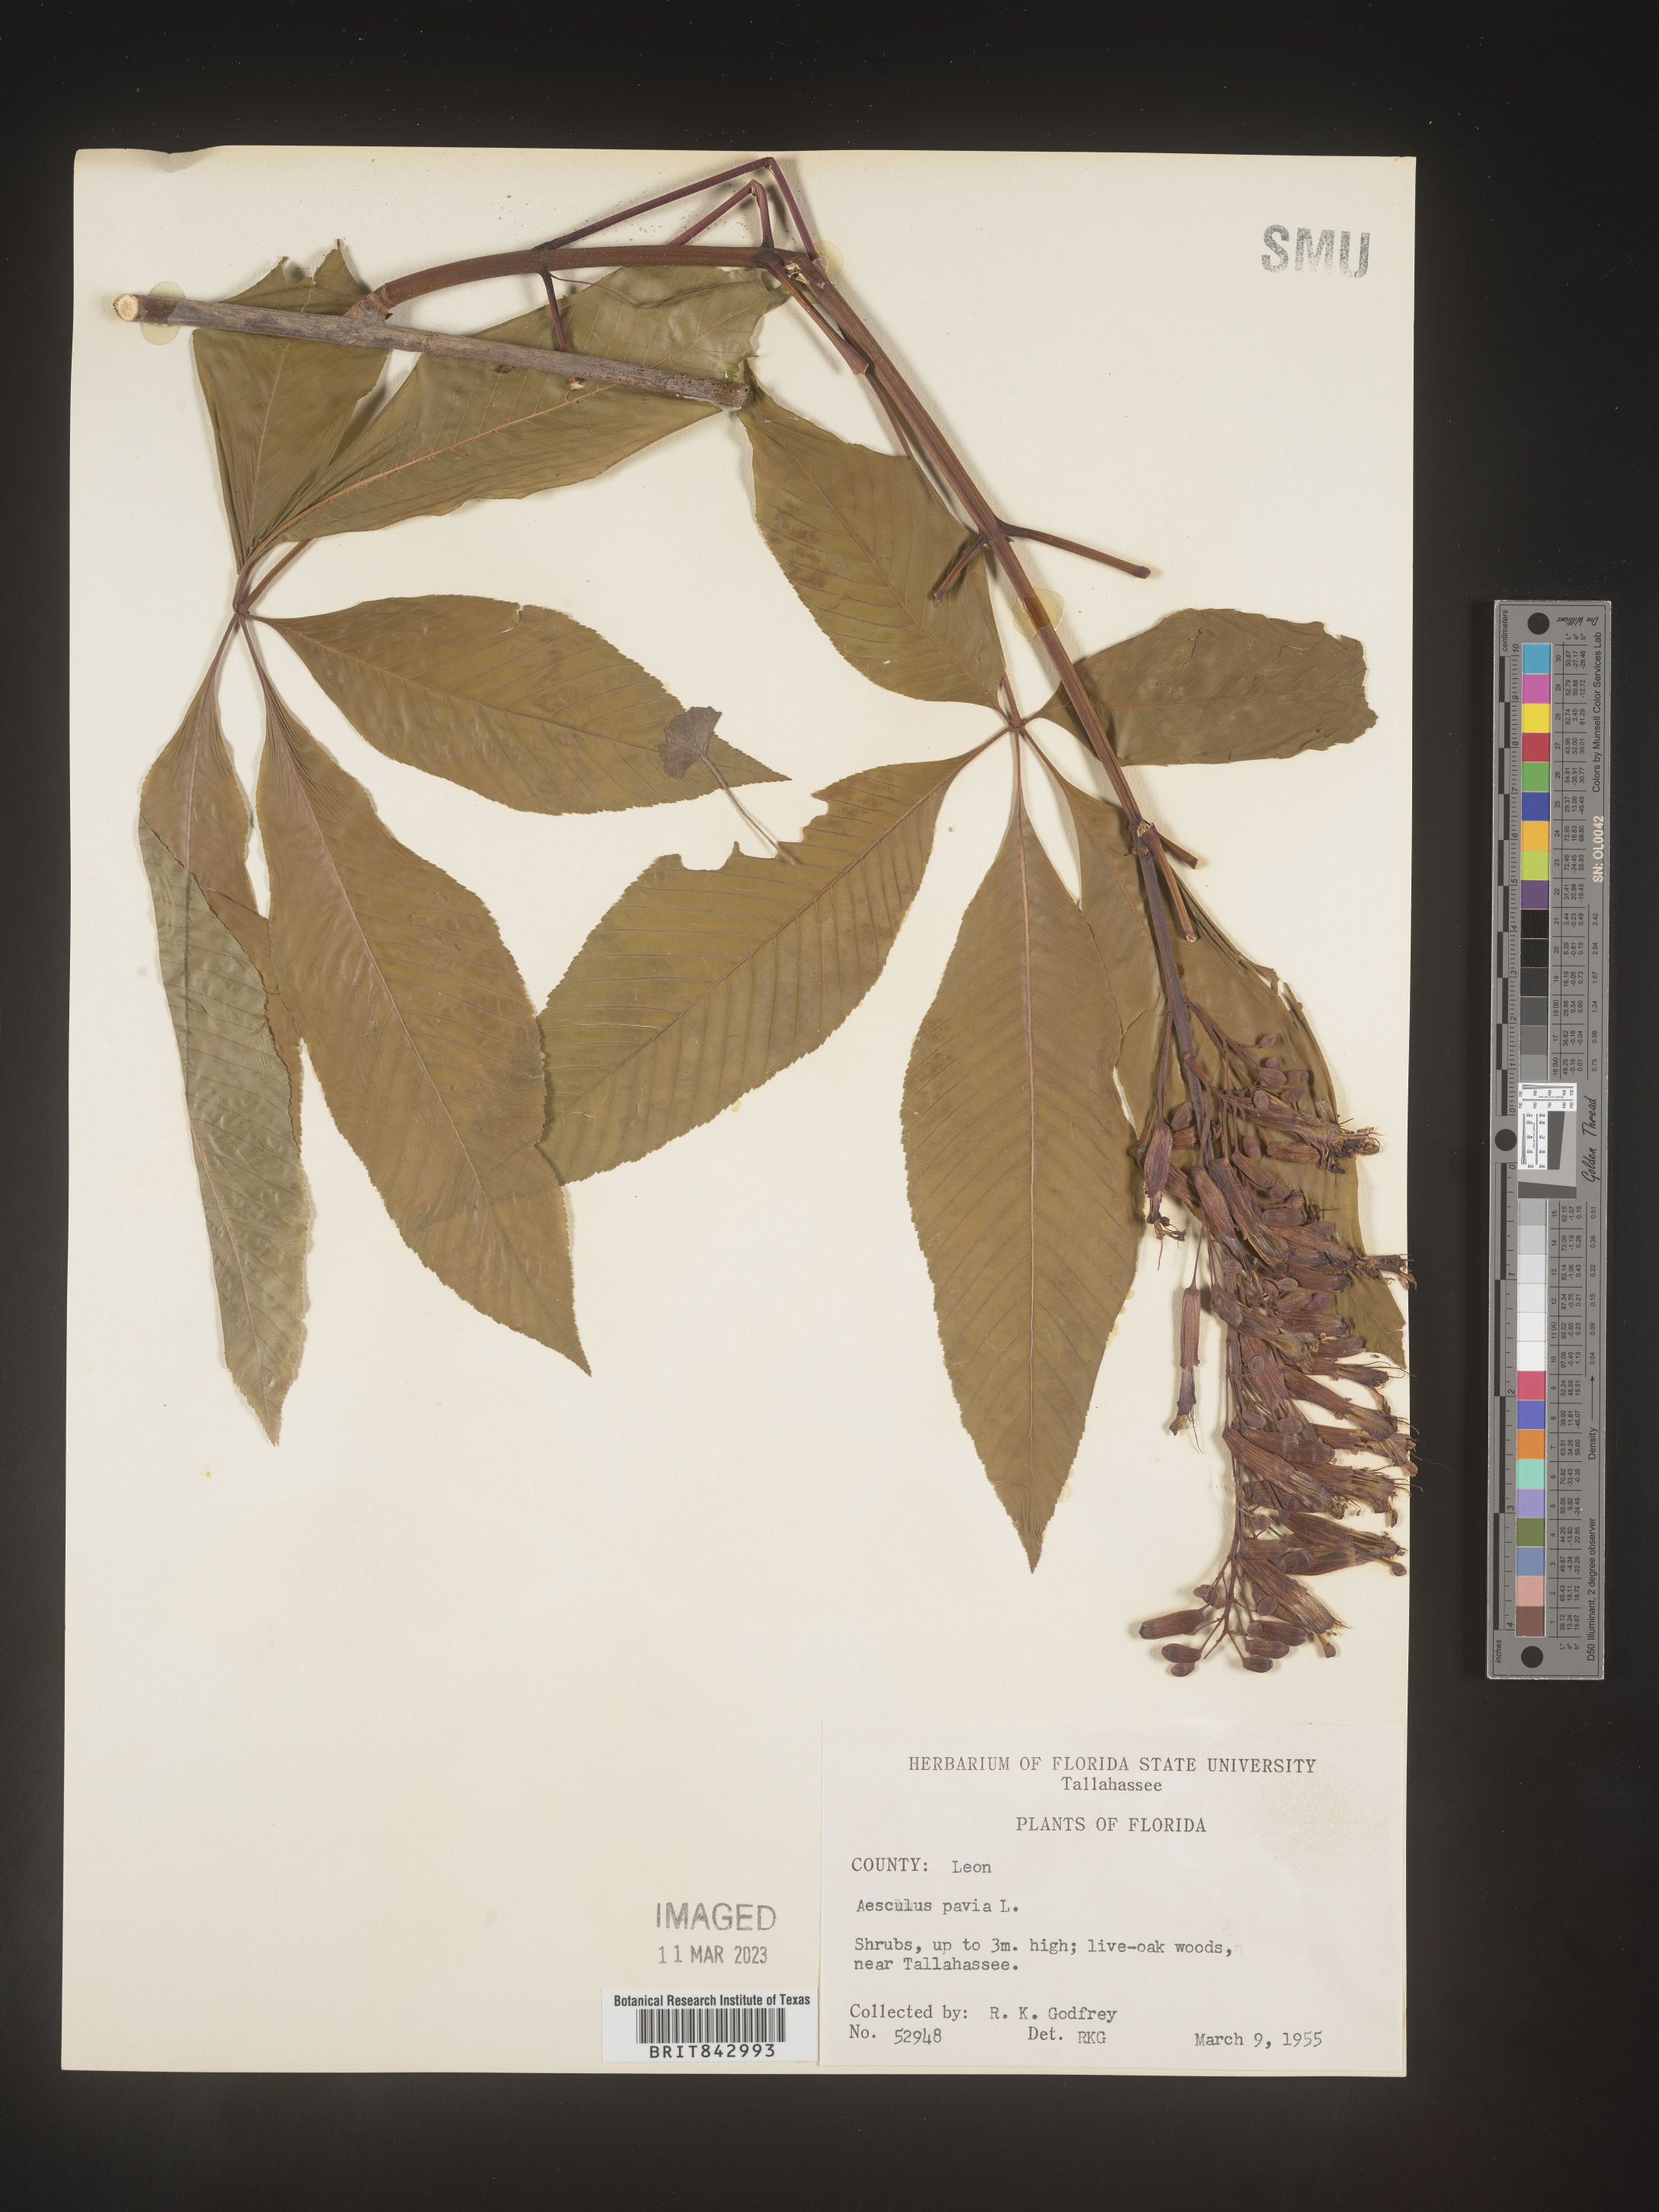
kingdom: Plantae
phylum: Tracheophyta
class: Magnoliopsida
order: Sapindales
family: Sapindaceae
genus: Aesculus
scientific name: Aesculus pavia
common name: Red buckeye
